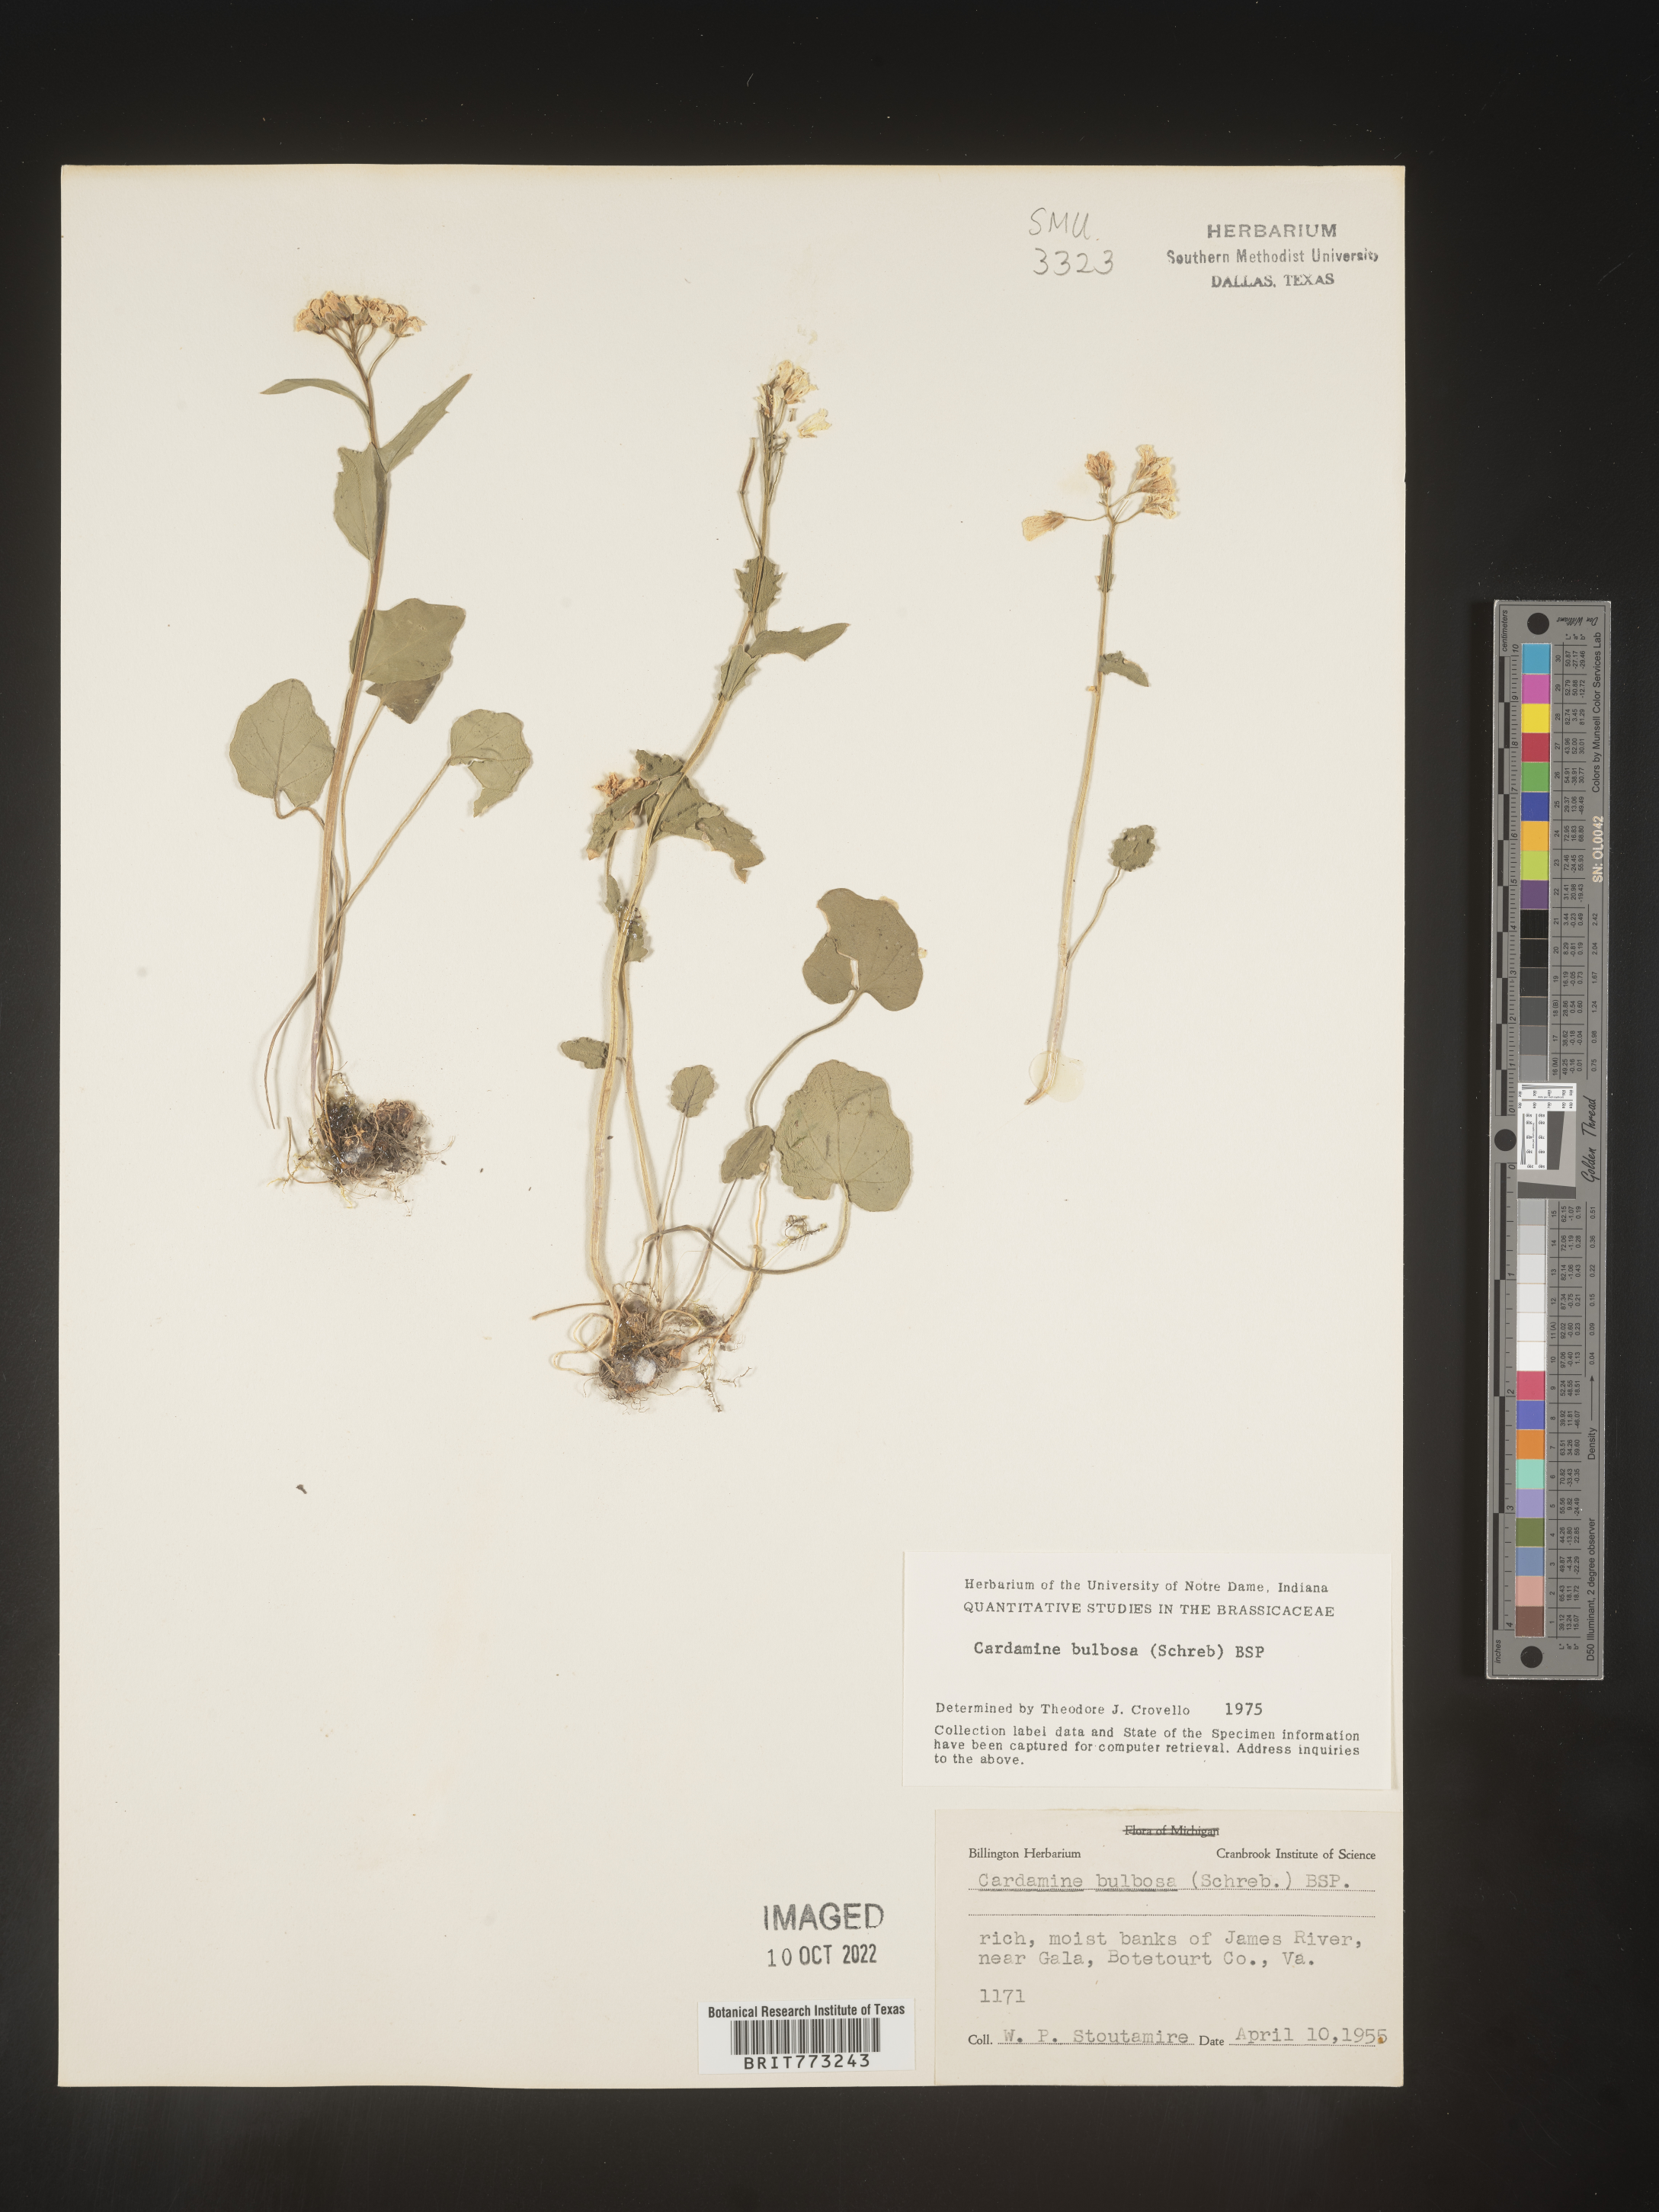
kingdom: Plantae
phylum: Tracheophyta
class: Magnoliopsida
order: Brassicales
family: Brassicaceae
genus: Cardamine
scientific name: Cardamine bulbosa
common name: Spring cress
